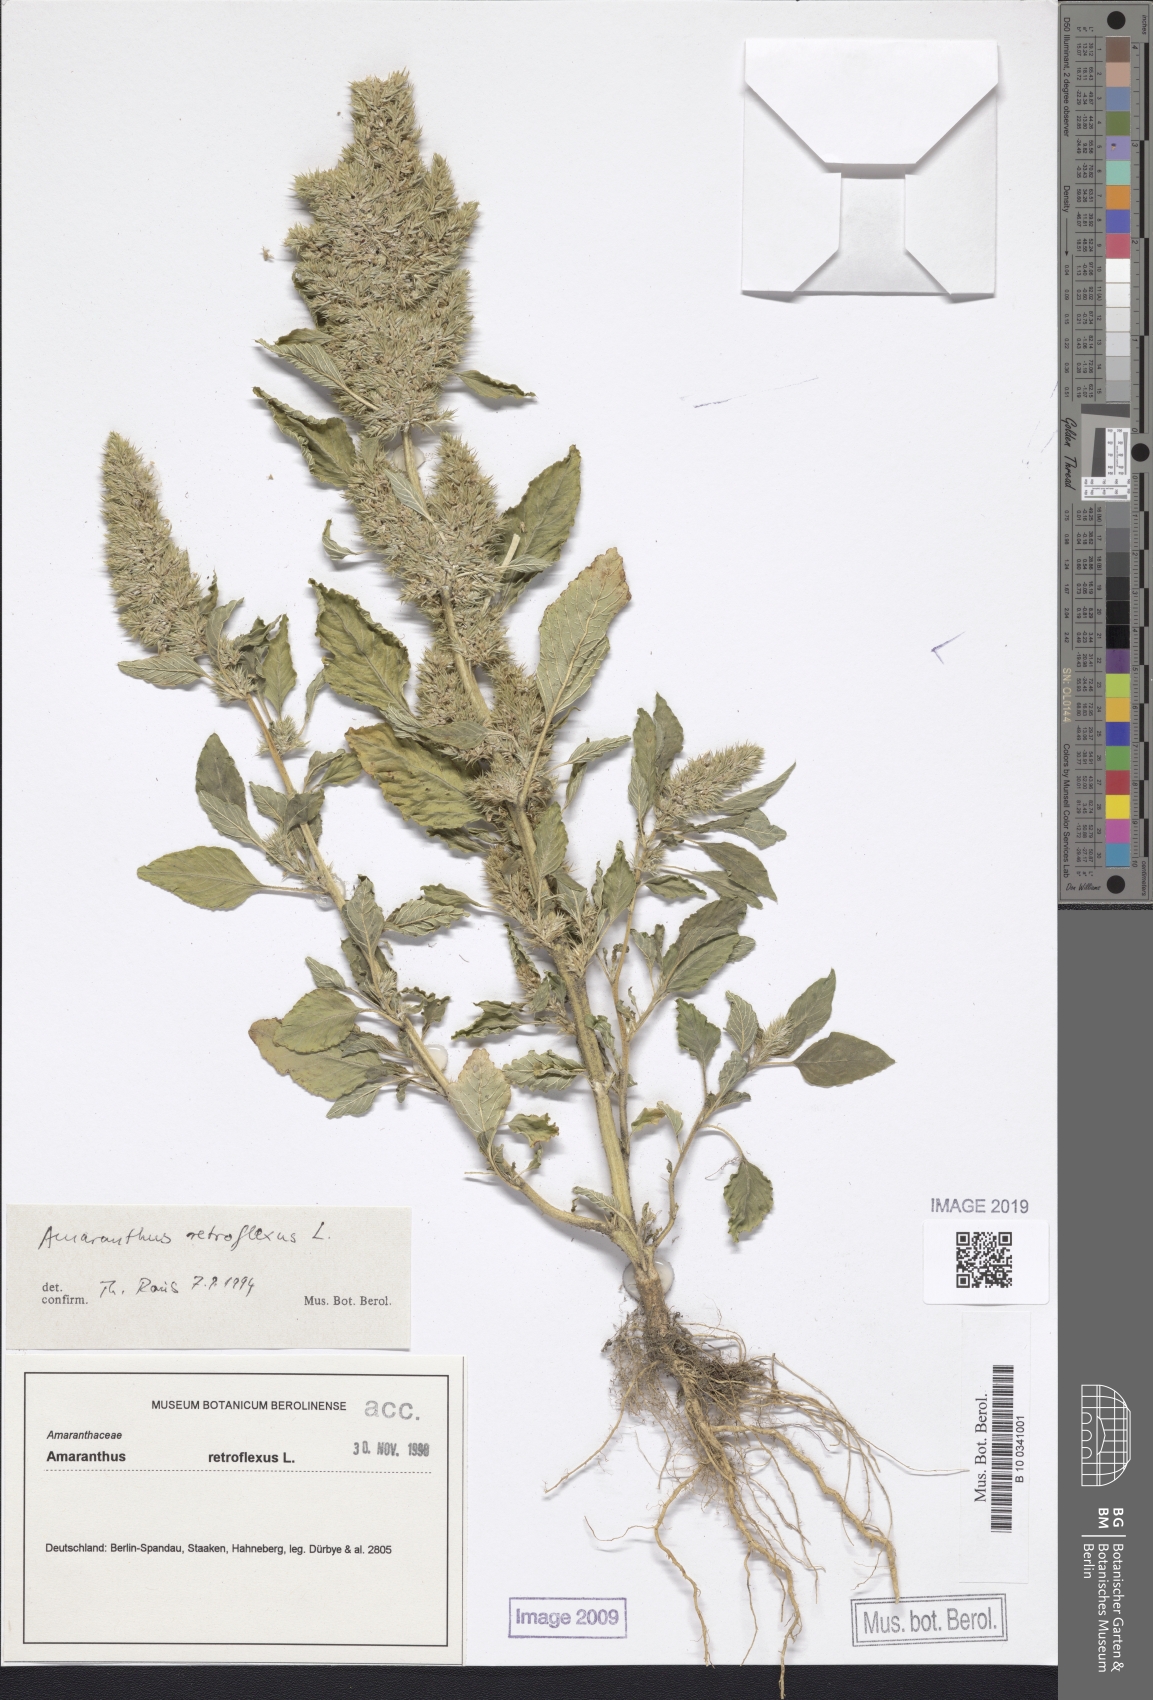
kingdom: Plantae
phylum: Tracheophyta
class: Magnoliopsida
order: Caryophyllales
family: Amaranthaceae
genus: Amaranthus
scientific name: Amaranthus retroflexus
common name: Redroot amaranth
